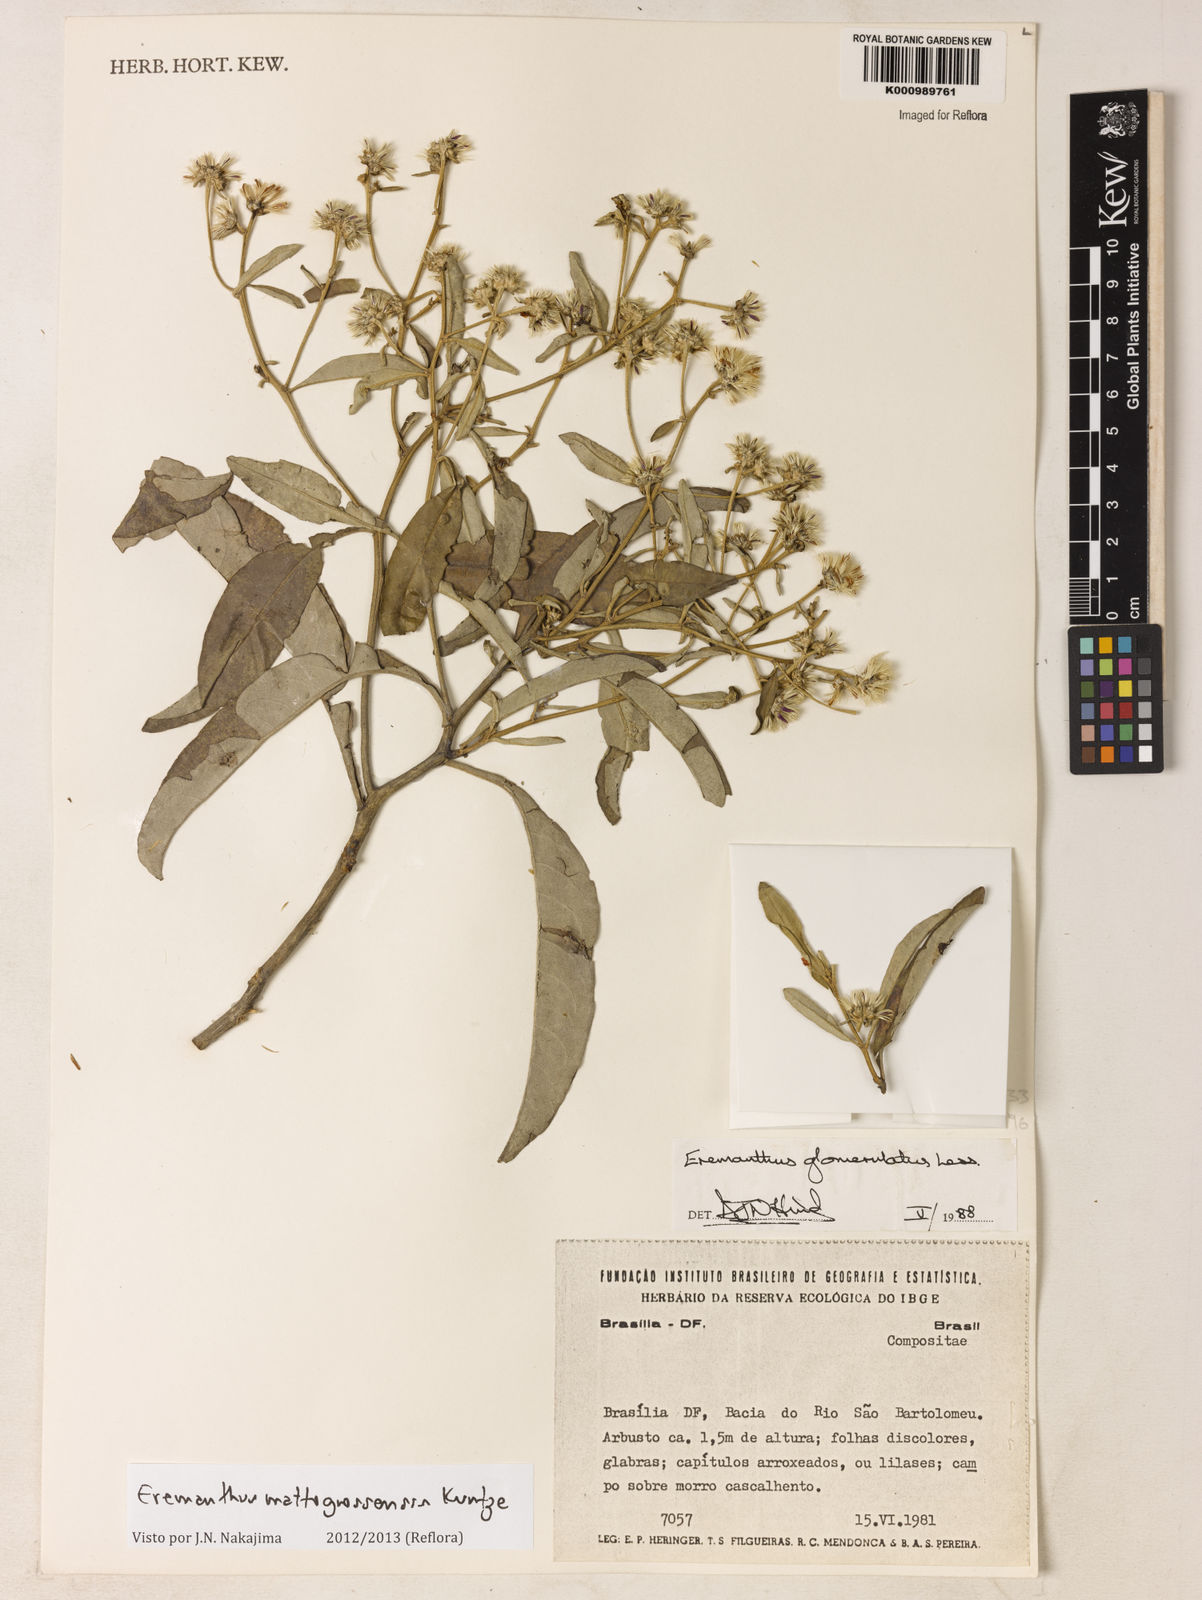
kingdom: Plantae
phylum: Tracheophyta
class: Magnoliopsida
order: Asterales
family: Asteraceae
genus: Eremanthus
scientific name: Eremanthus mattogrossensis
